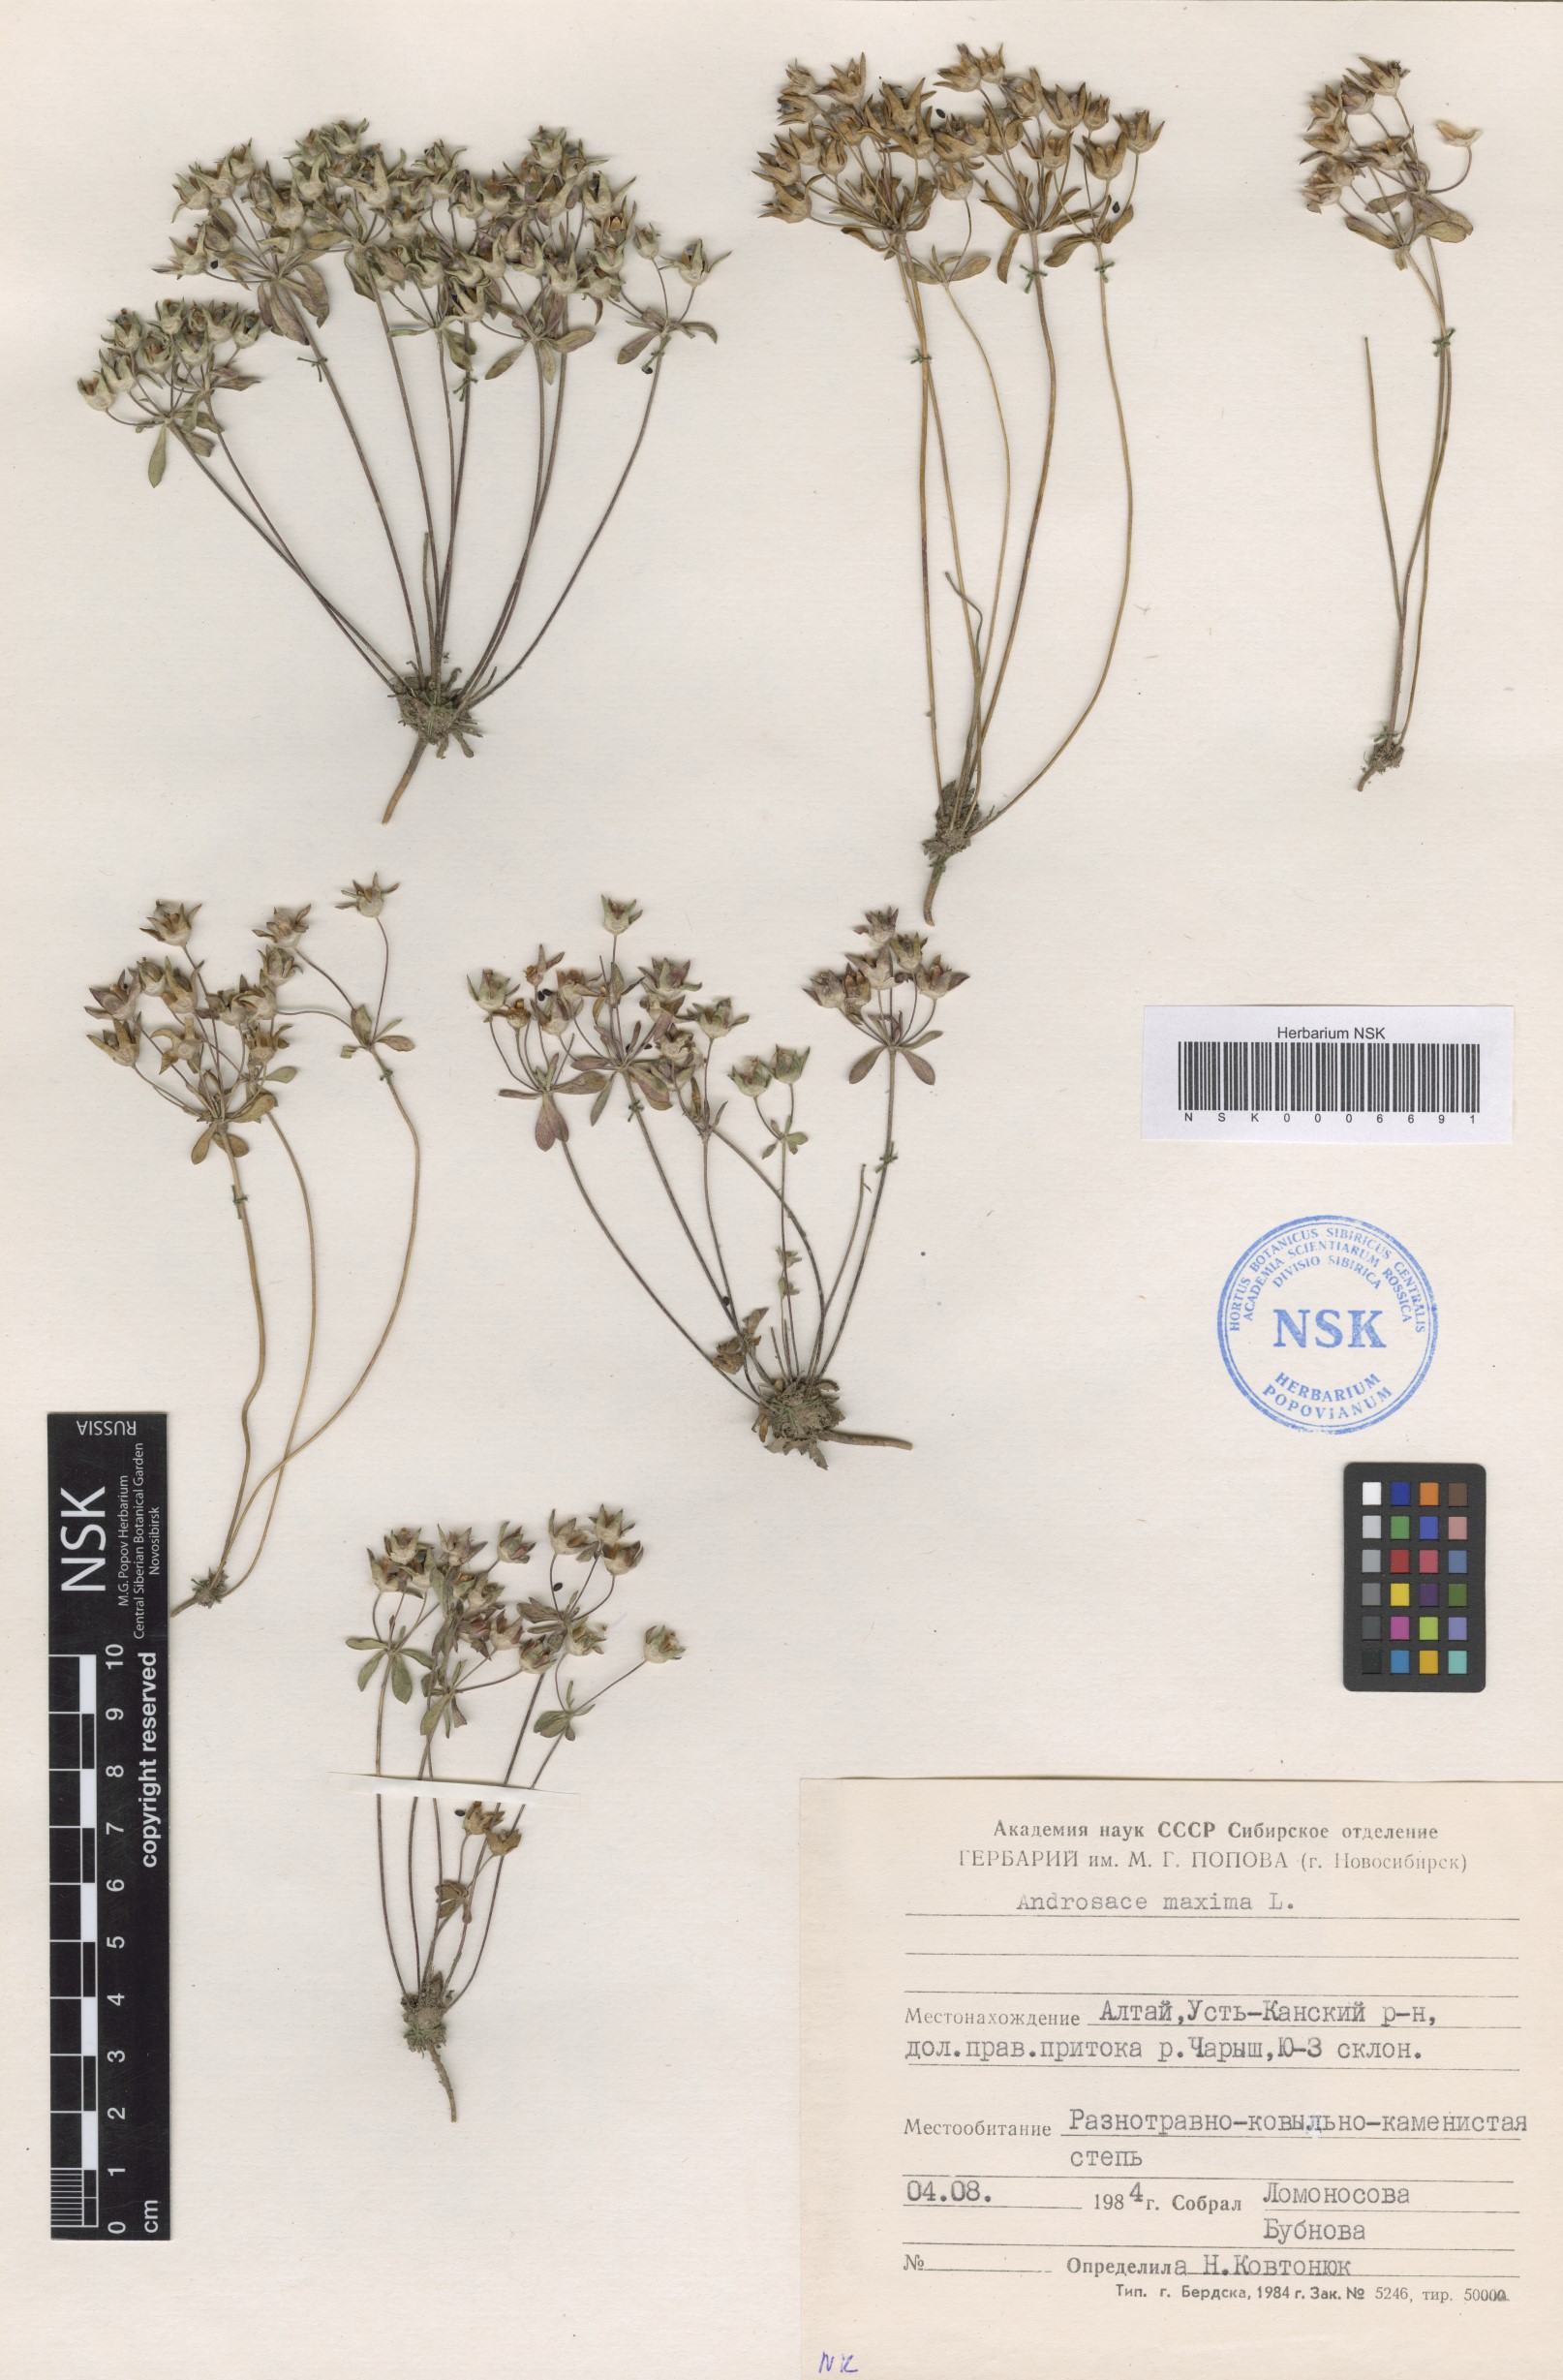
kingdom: Plantae
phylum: Tracheophyta
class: Magnoliopsida
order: Ericales
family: Primulaceae
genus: Androsace
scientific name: Androsace maxima
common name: Annual androsace
